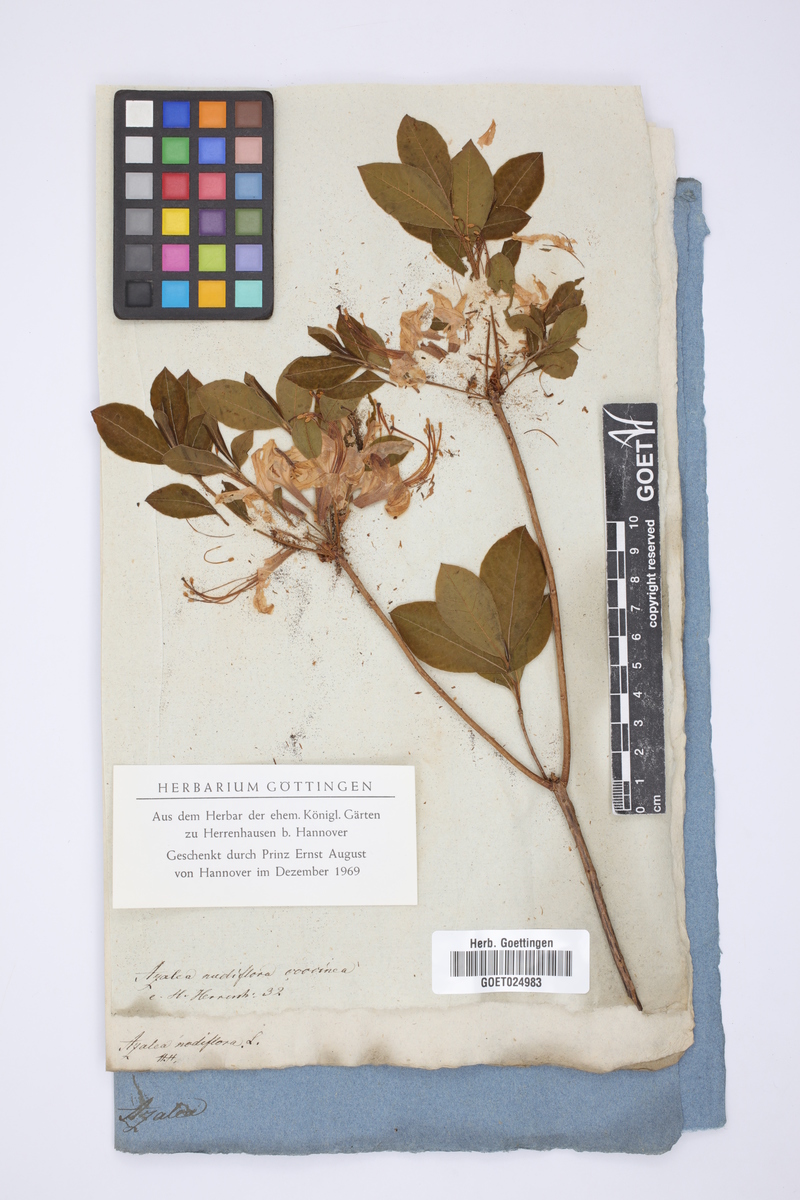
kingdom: Plantae
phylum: Tracheophyta
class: Magnoliopsida
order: Ericales
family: Ericaceae
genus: Rhododendron
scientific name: Rhododendron periclymenoides
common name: Election-pink
